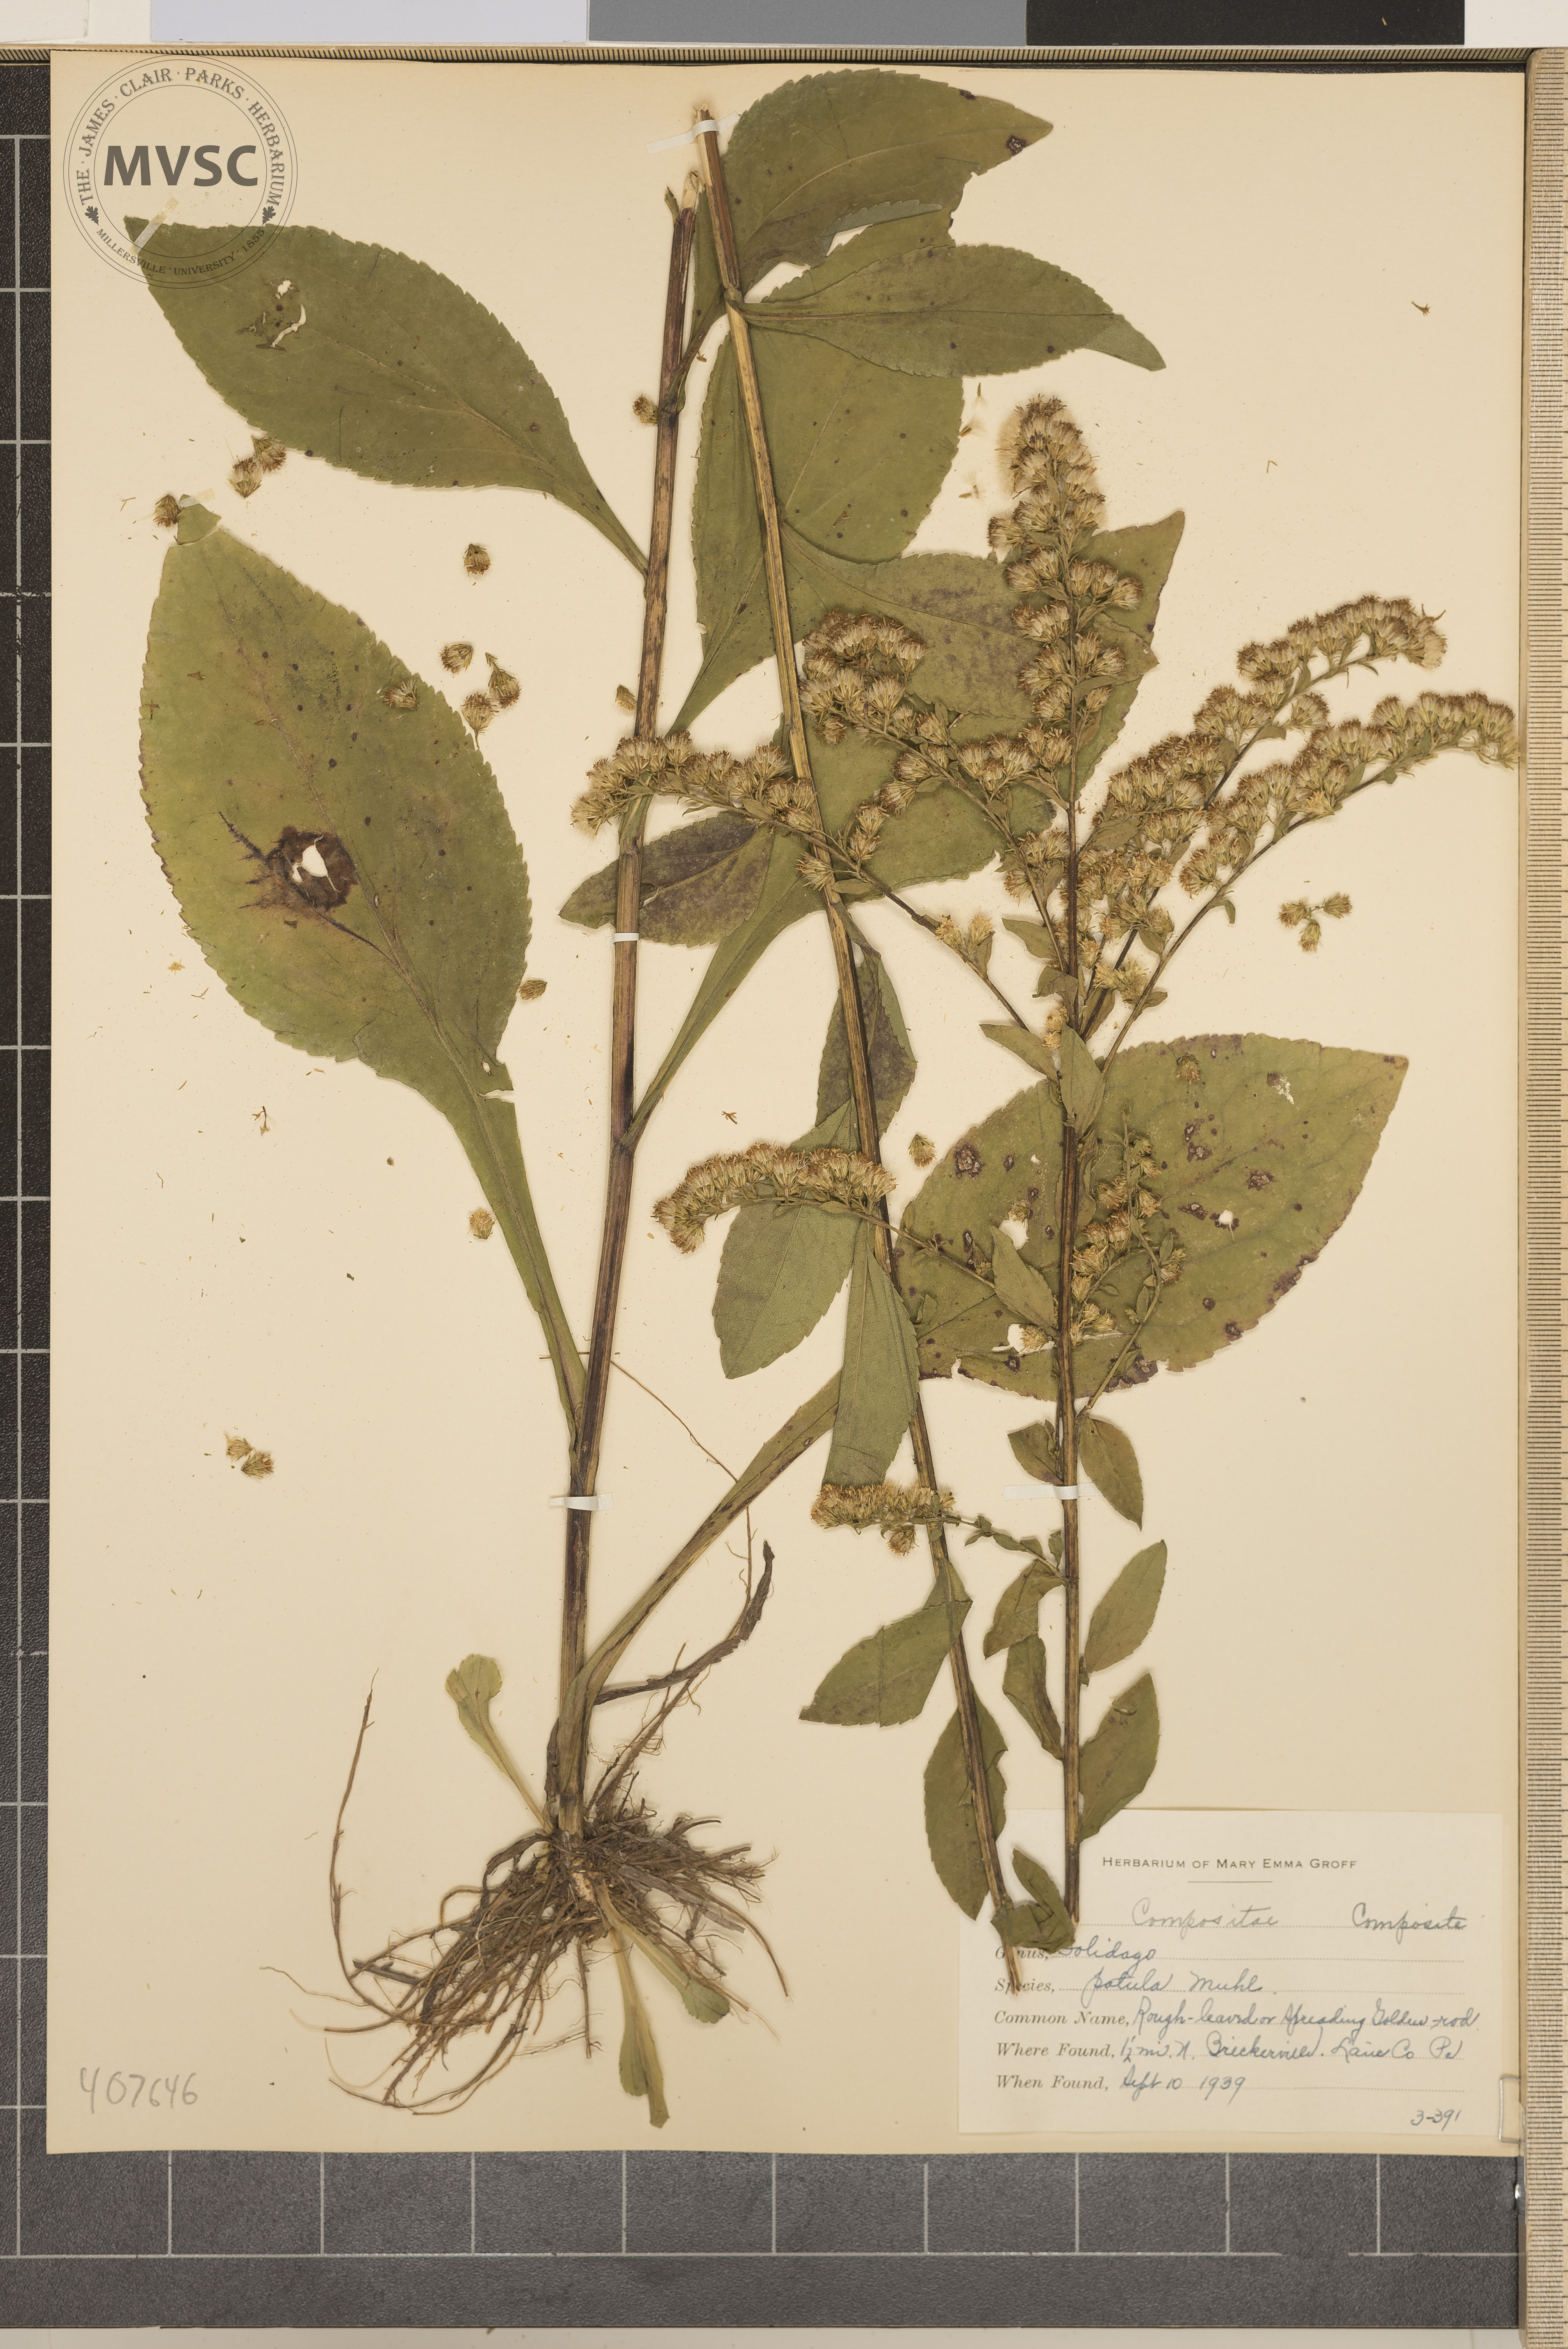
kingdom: Plantae
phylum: Tracheophyta
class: Magnoliopsida
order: Asterales
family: Asteraceae
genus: Solidago
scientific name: Solidago patula
